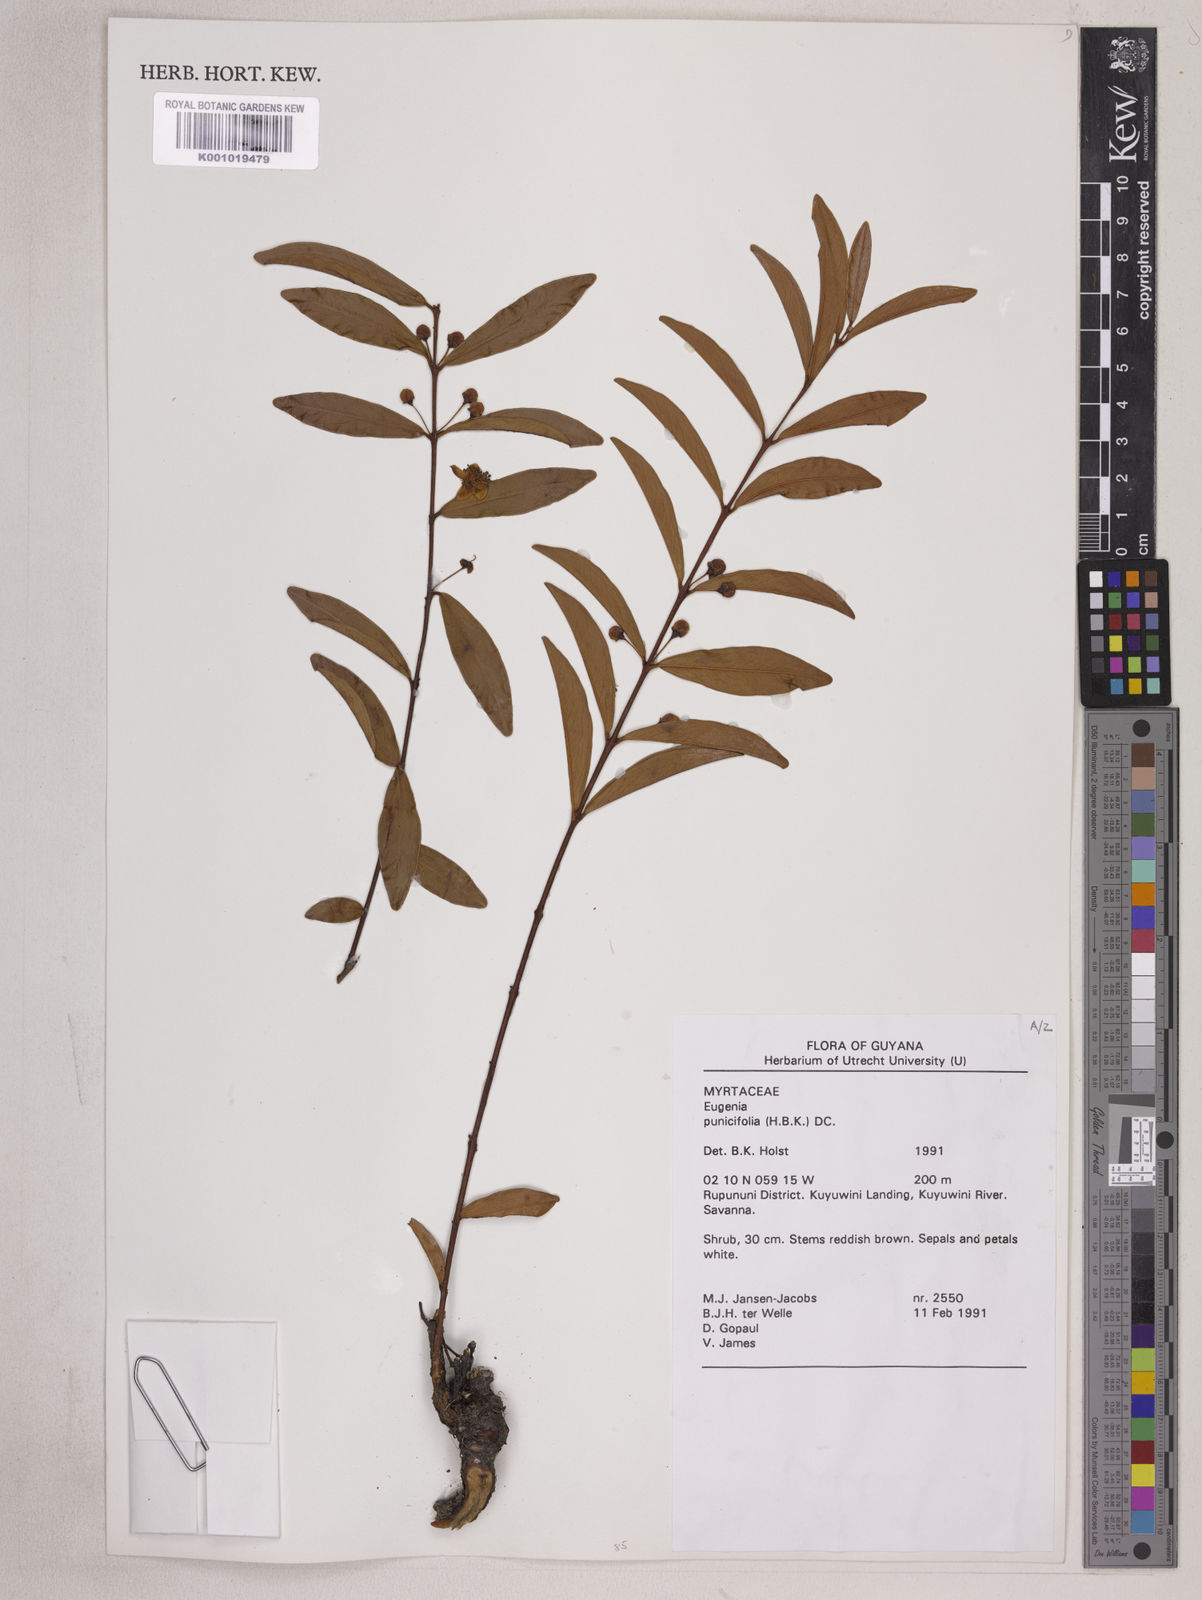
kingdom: Plantae
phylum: Tracheophyta
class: Magnoliopsida
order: Myrtales
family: Myrtaceae
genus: Eugenia
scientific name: Eugenia punicifolia
